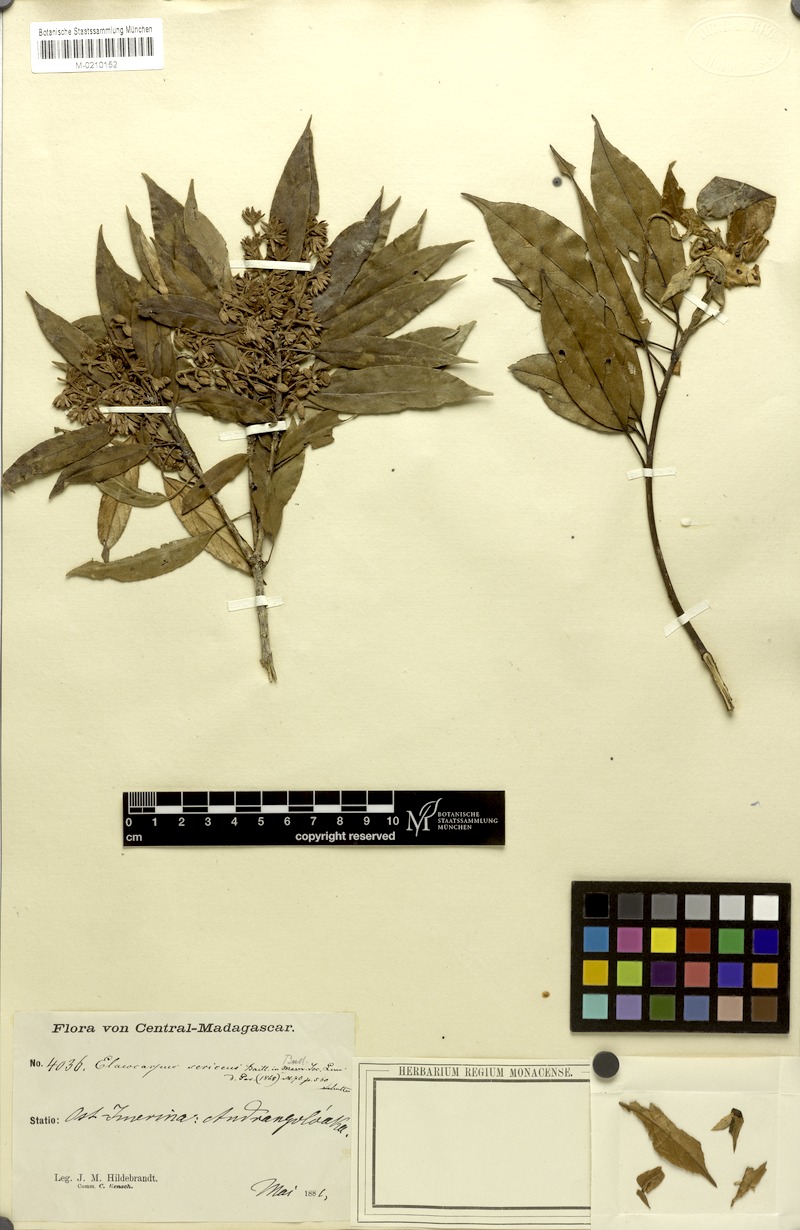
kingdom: Plantae
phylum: Tracheophyta
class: Magnoliopsida
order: Oxalidales
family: Elaeocarpaceae
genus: Elaeocarpus
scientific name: Elaeocarpus subserratus
